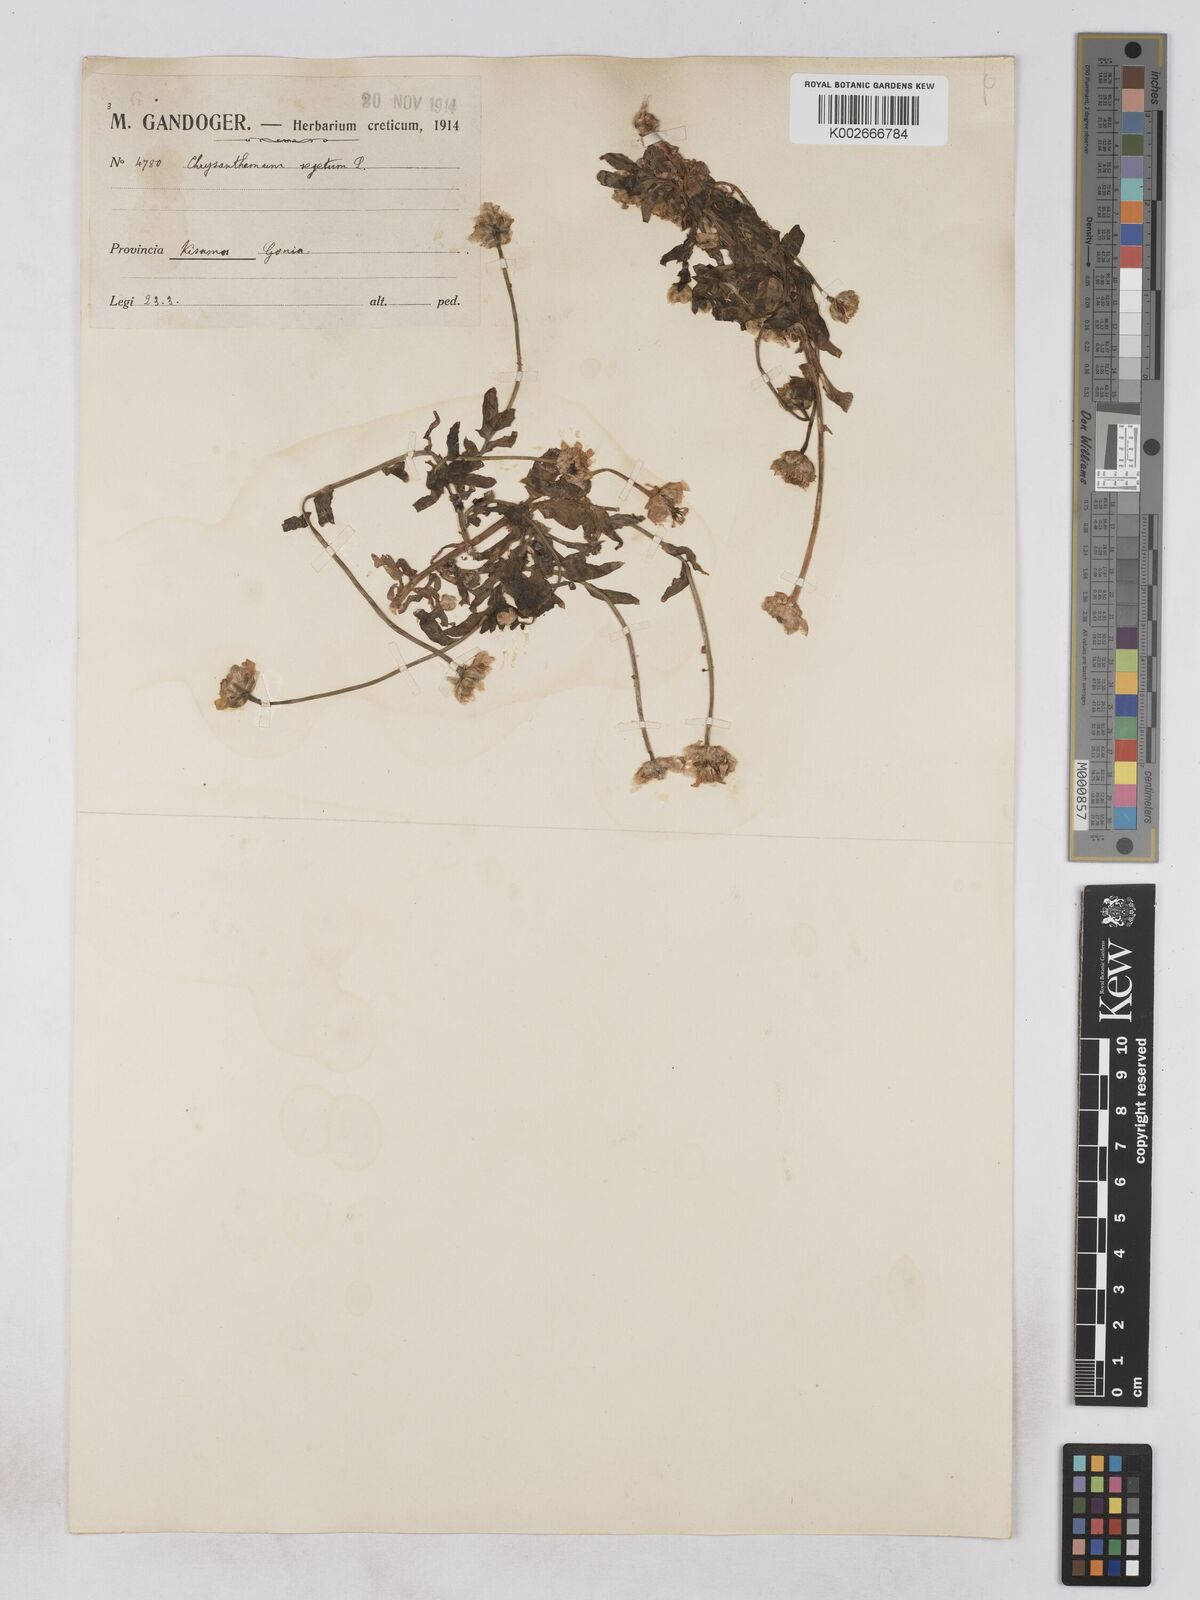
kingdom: Plantae
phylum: Tracheophyta
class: Magnoliopsida
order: Asterales
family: Asteraceae
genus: Glebionis
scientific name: Glebionis segetum
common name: Corndaisy
